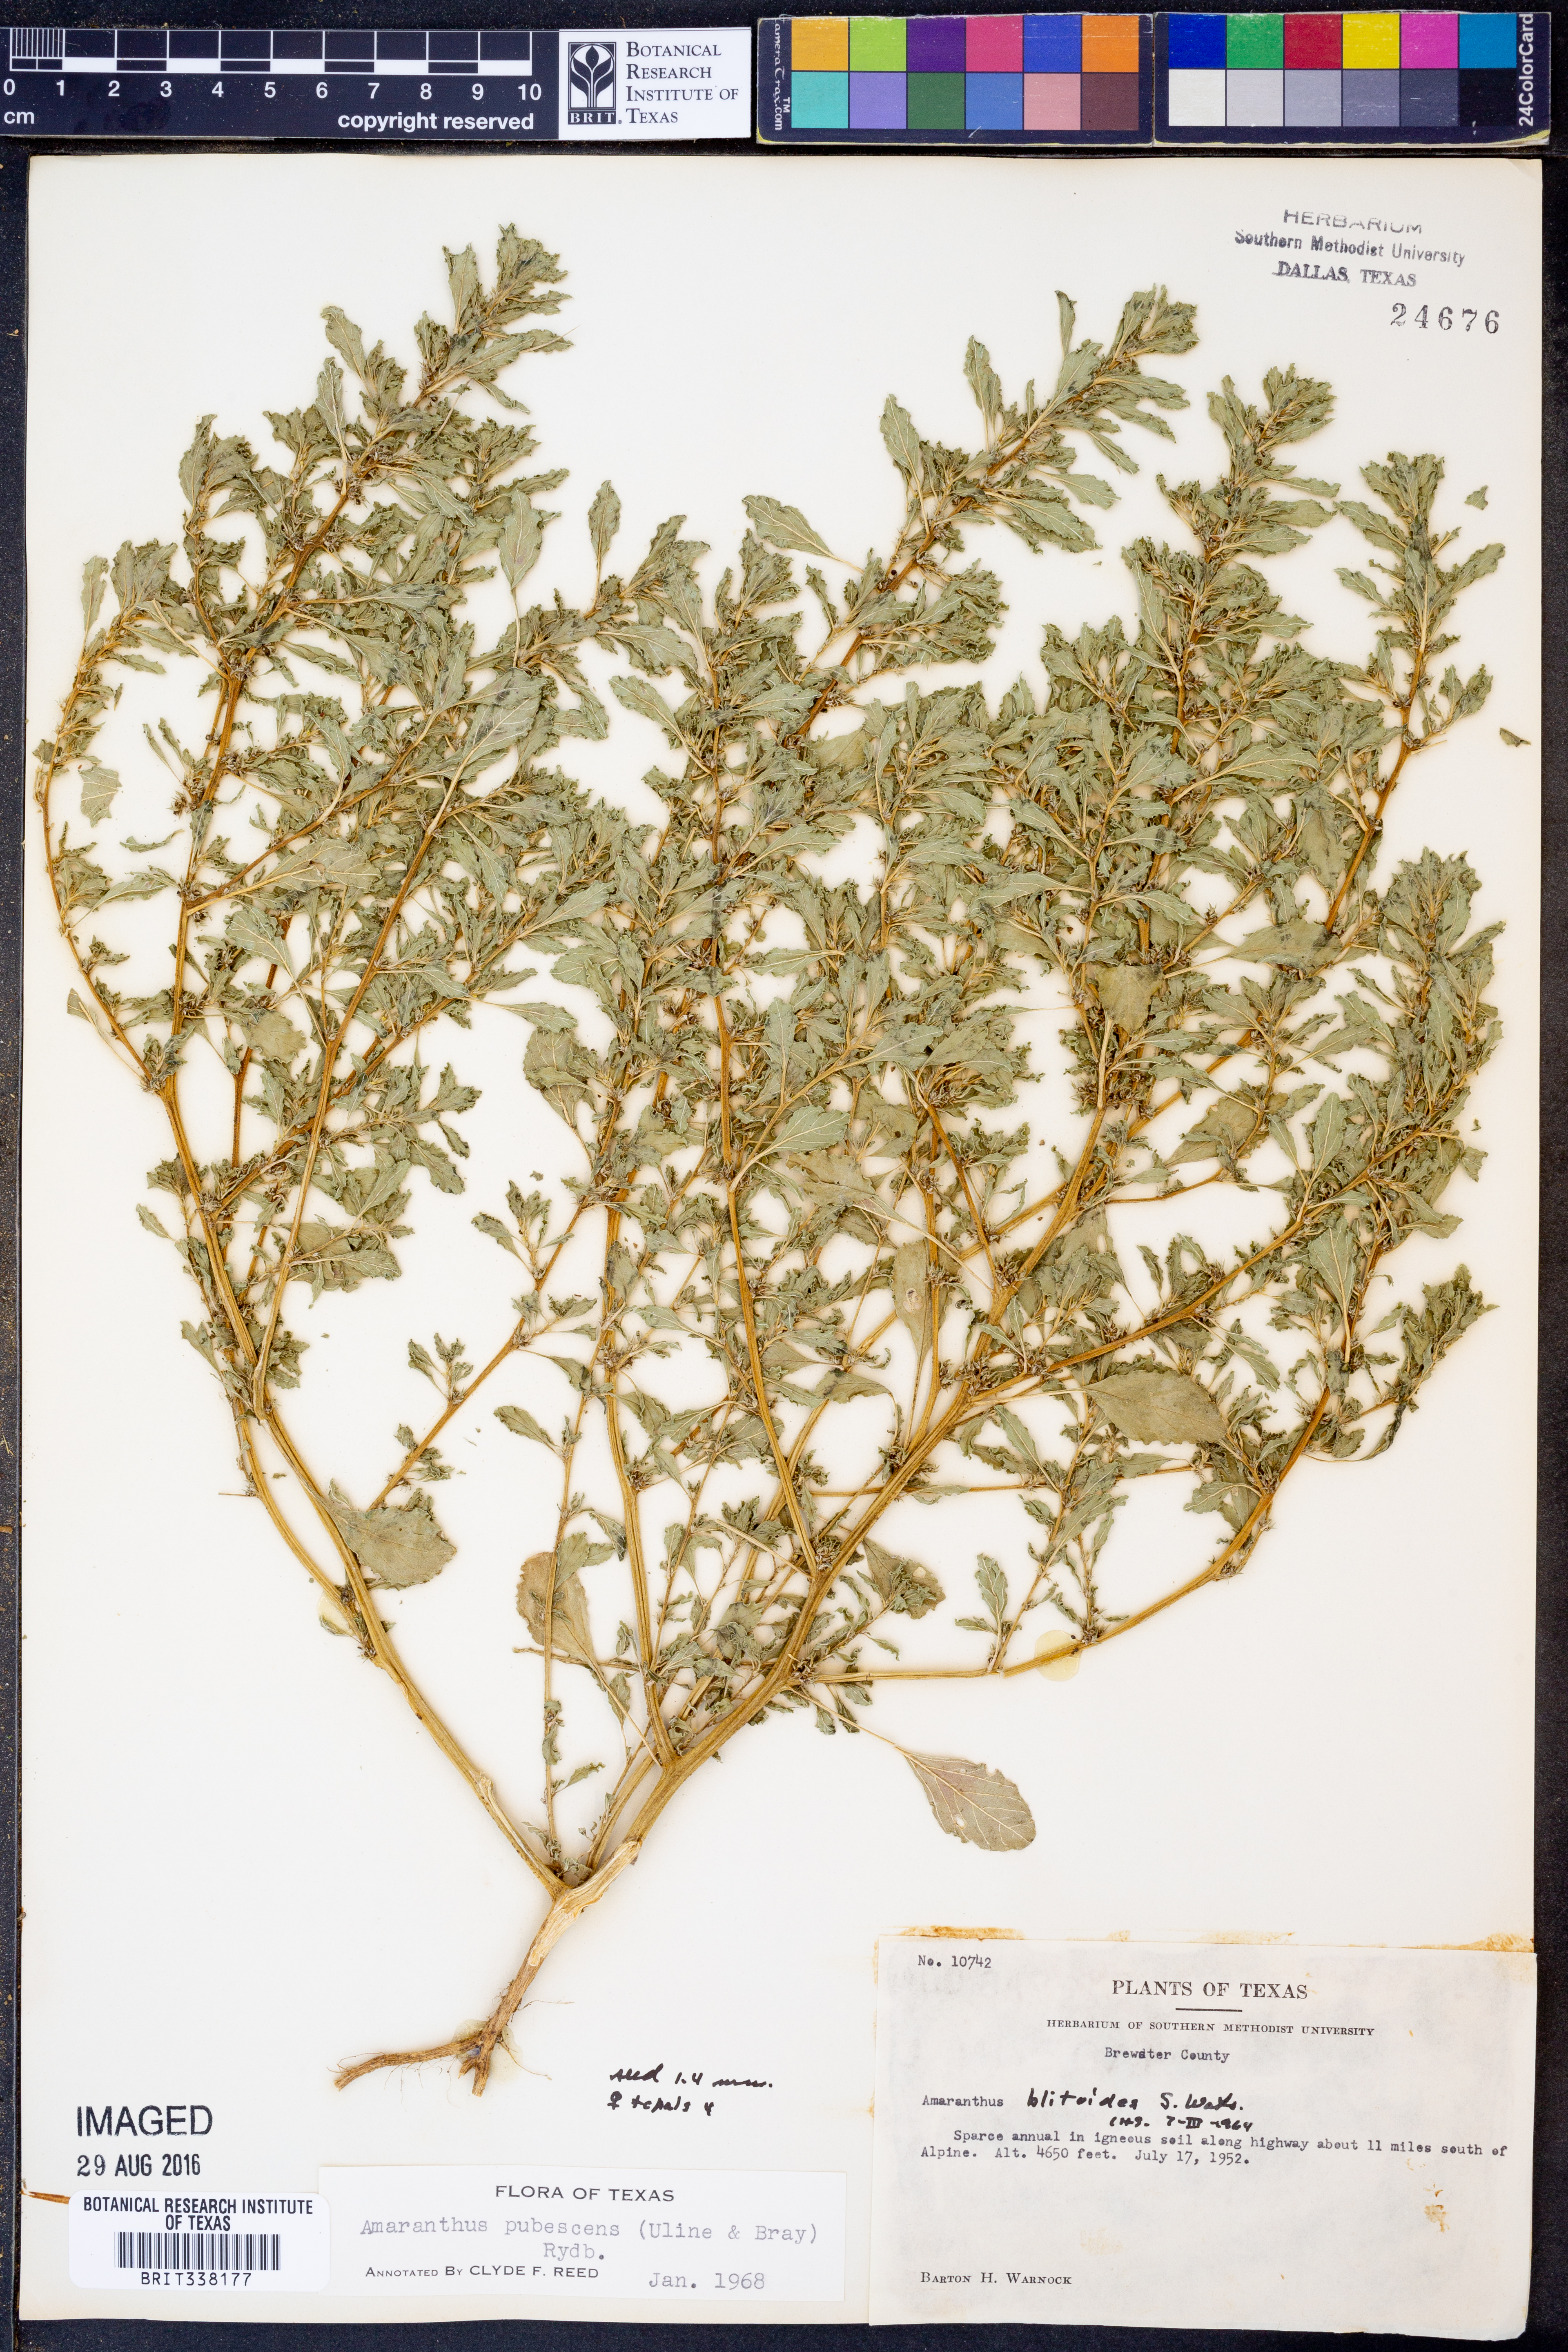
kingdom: Plantae
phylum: Tracheophyta
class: Magnoliopsida
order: Caryophyllales
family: Amaranthaceae
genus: Amaranthus
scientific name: Amaranthus albus
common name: White pigweed
